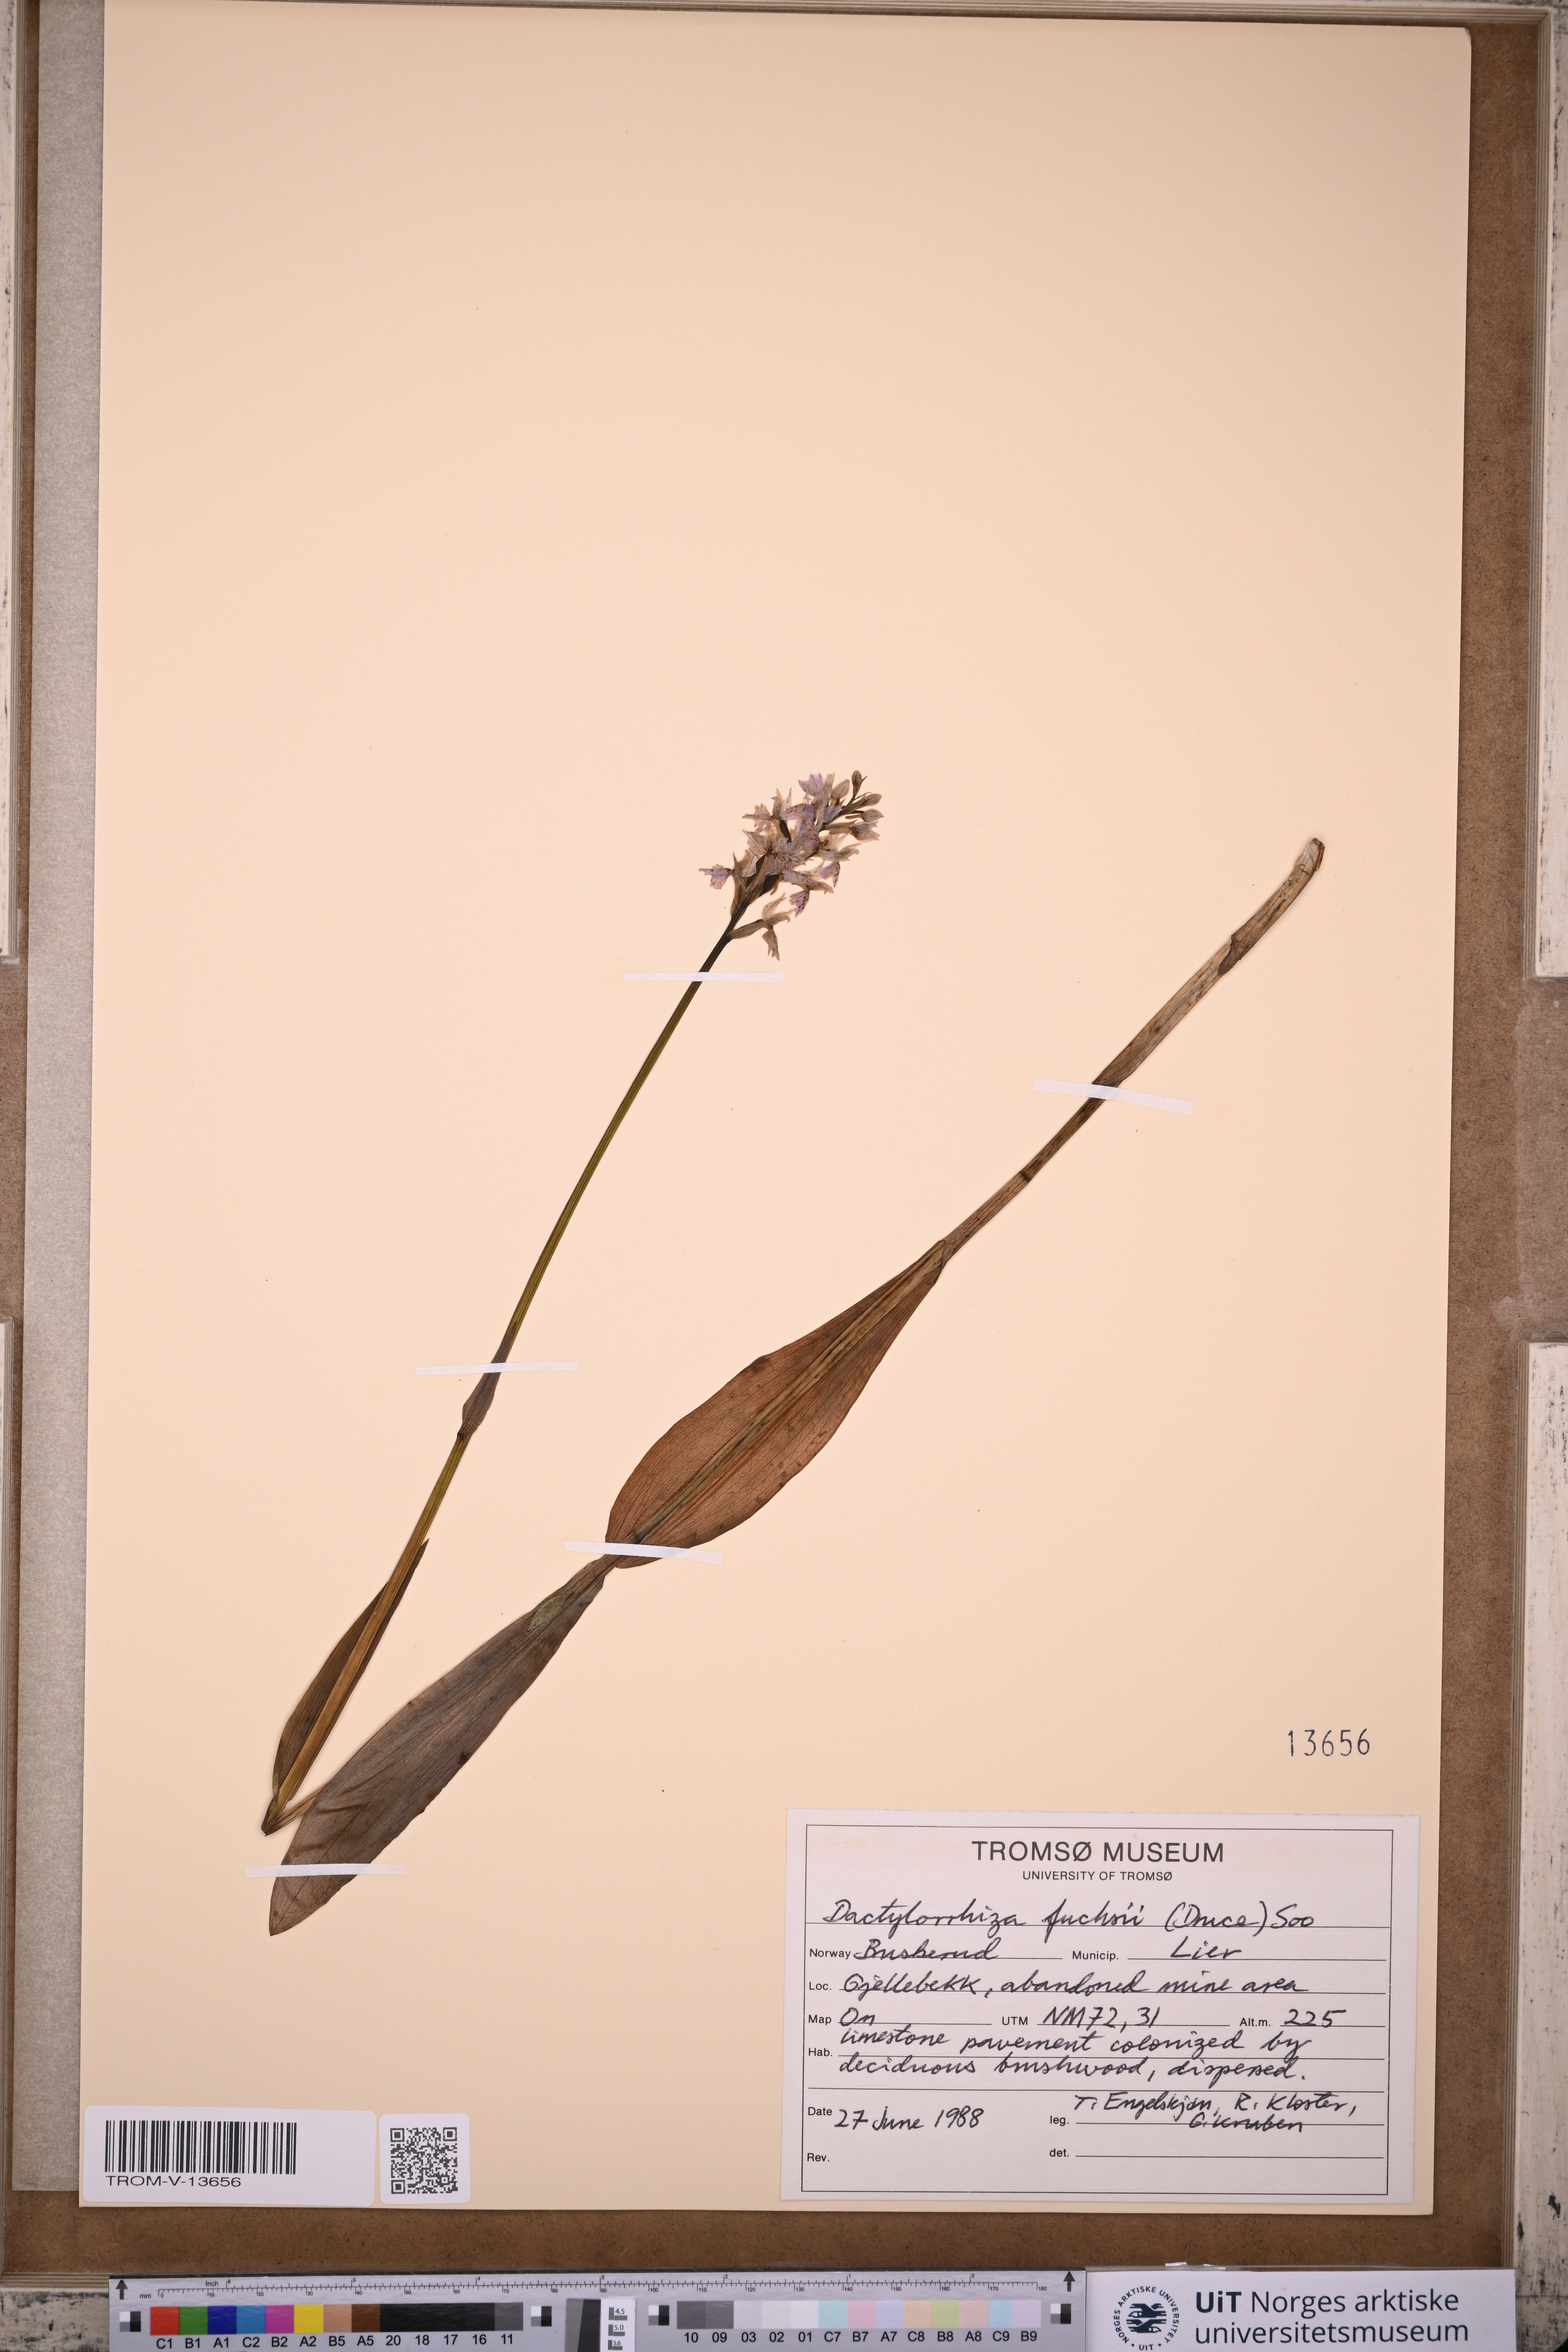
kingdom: Plantae
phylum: Tracheophyta
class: Liliopsida
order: Asparagales
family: Orchidaceae
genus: Dactylorhiza
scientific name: Dactylorhiza maculata
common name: Heath spotted-orchid
